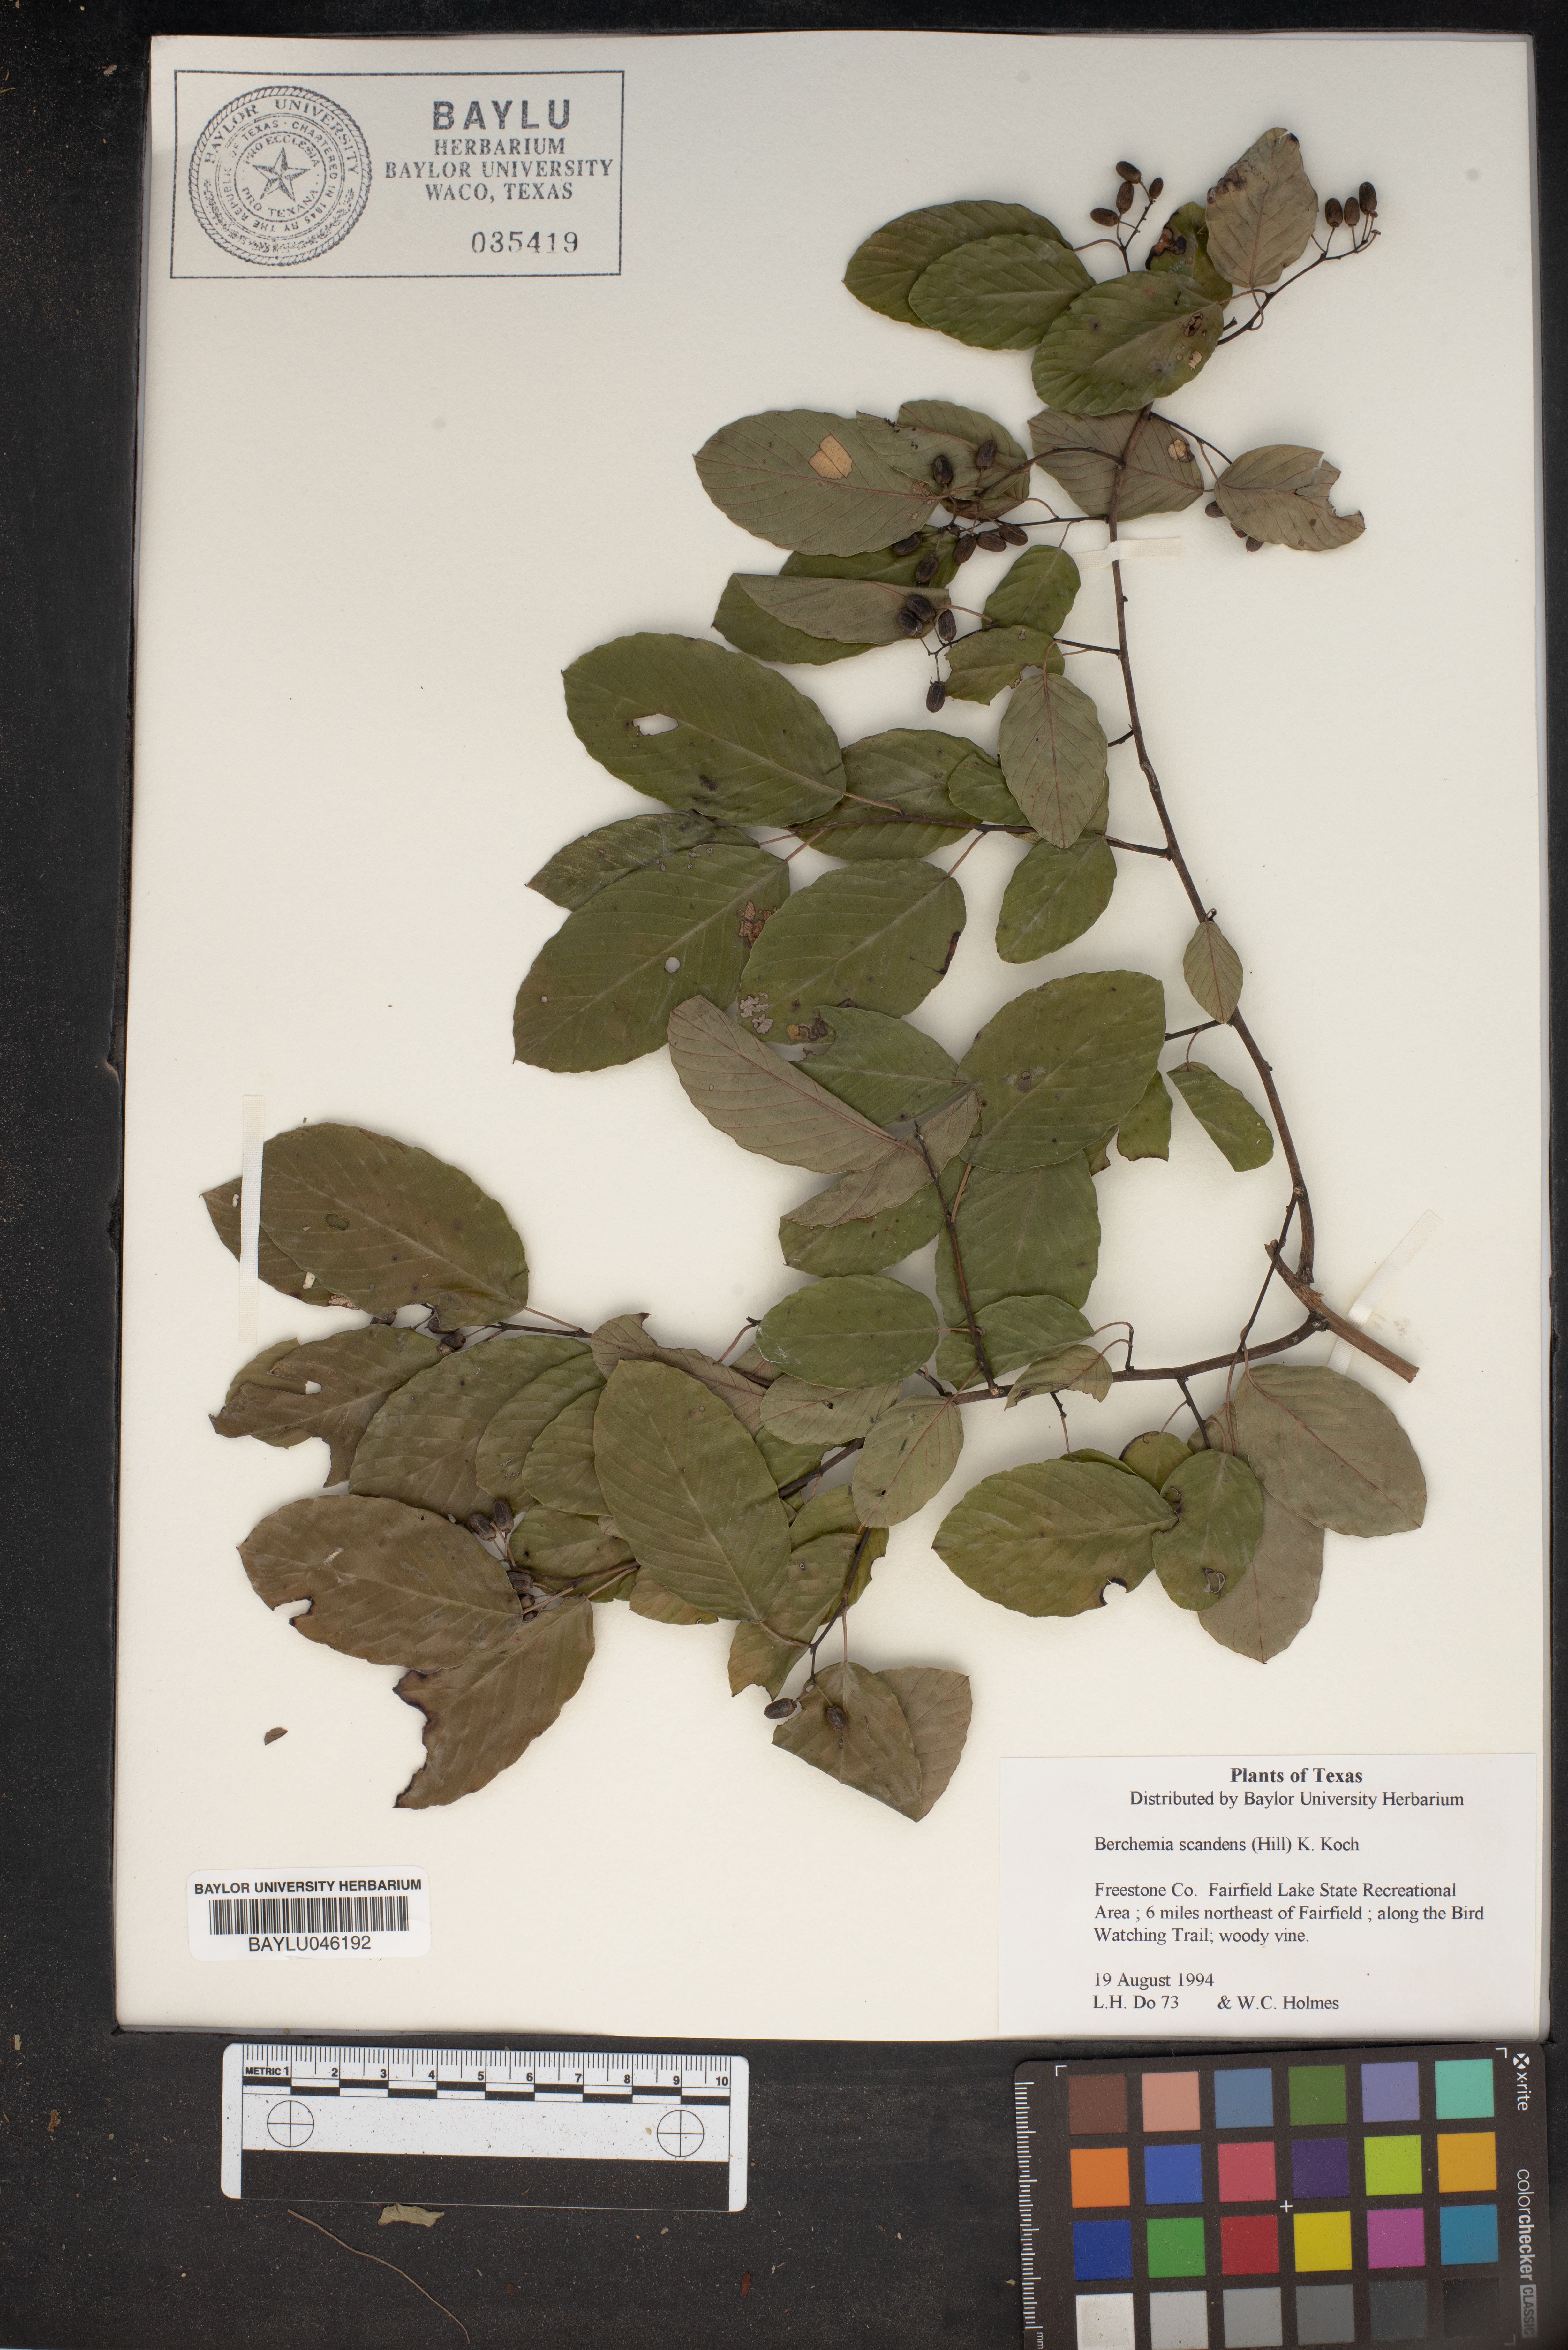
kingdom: Plantae
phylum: Tracheophyta
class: Magnoliopsida
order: Rosales
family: Rhamnaceae
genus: Berchemia
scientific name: Berchemia scandens
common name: Supplejack
